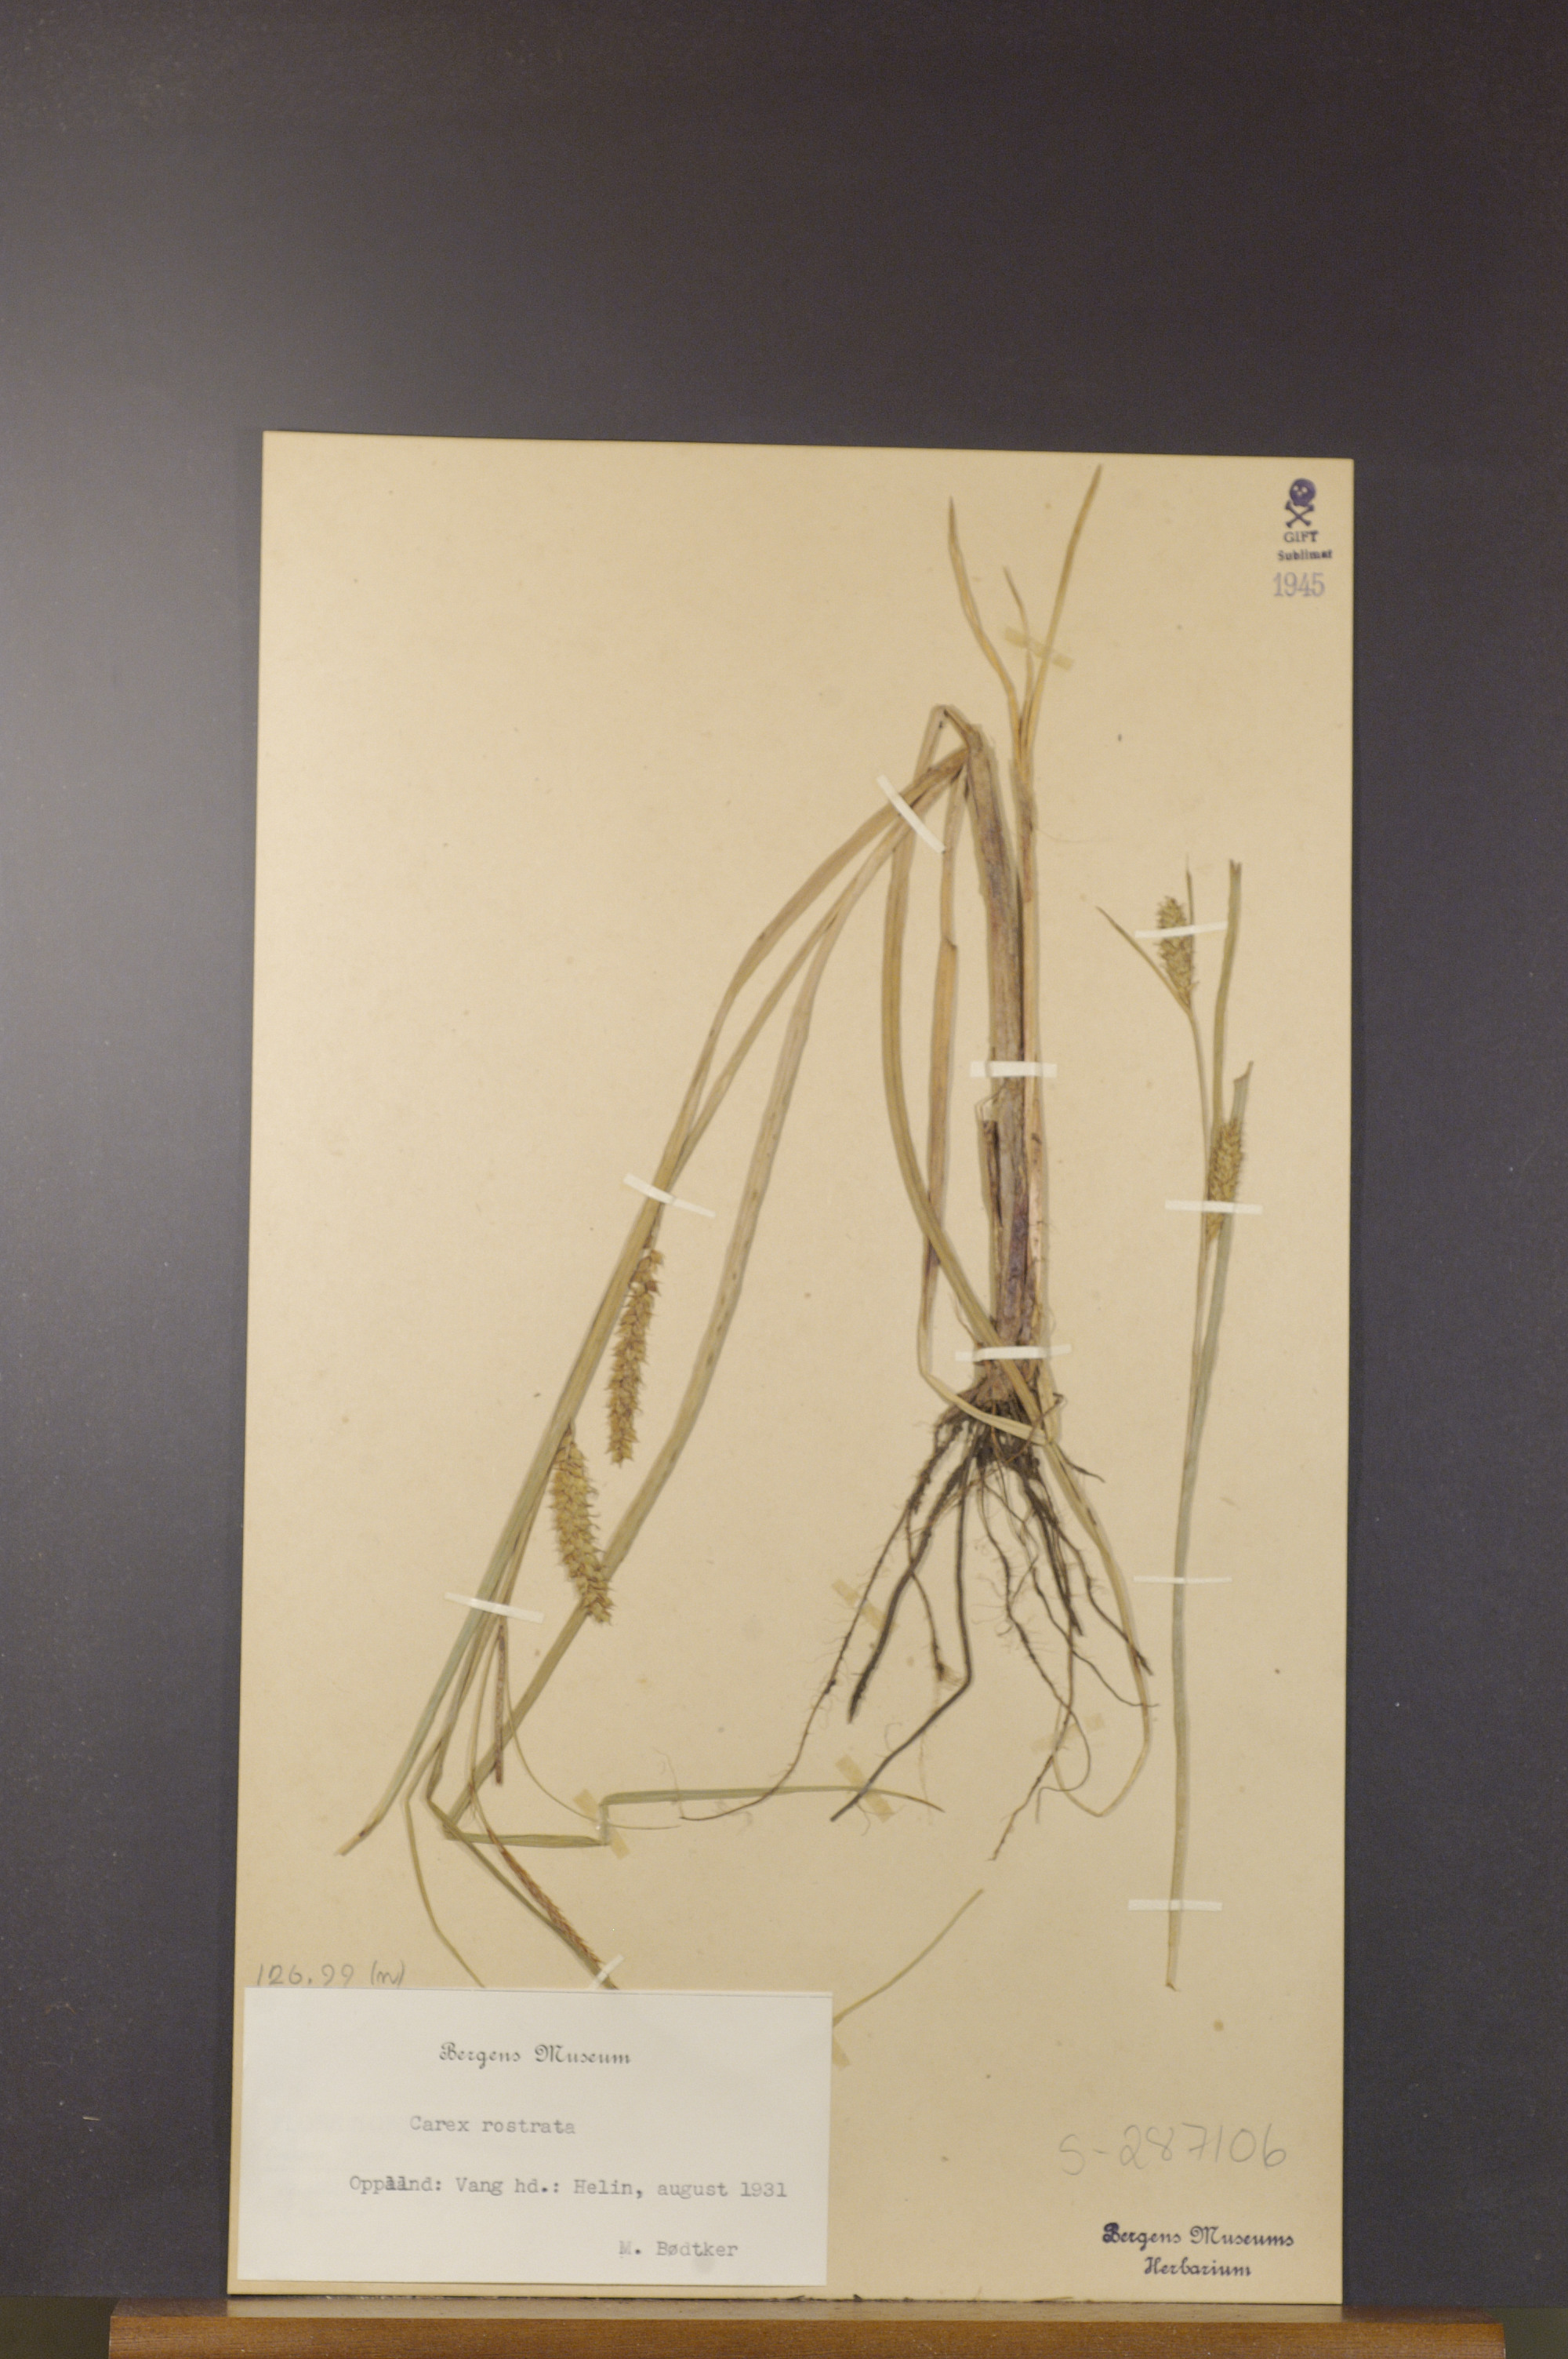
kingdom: Plantae
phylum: Tracheophyta
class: Liliopsida
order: Poales
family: Cyperaceae
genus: Carex
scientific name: Carex rostrata
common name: Bottle sedge
